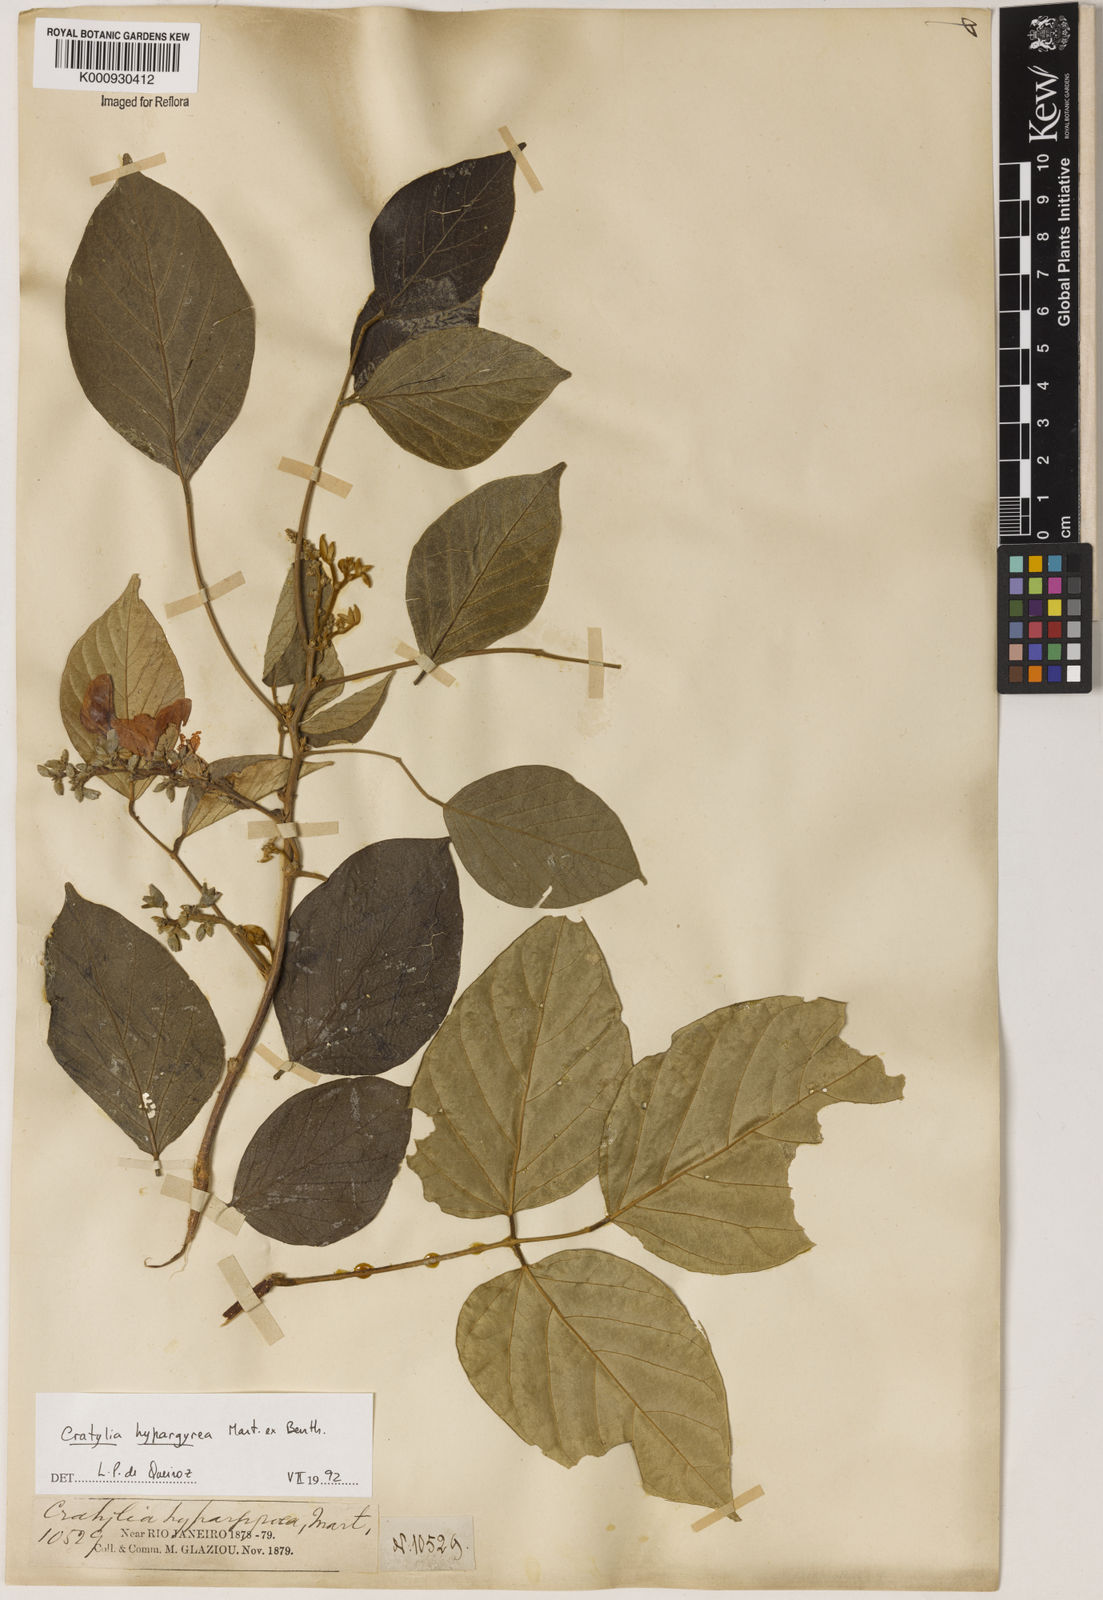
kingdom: Plantae
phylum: Tracheophyta
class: Magnoliopsida
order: Fabales
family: Fabaceae
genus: Cratylia
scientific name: Cratylia
